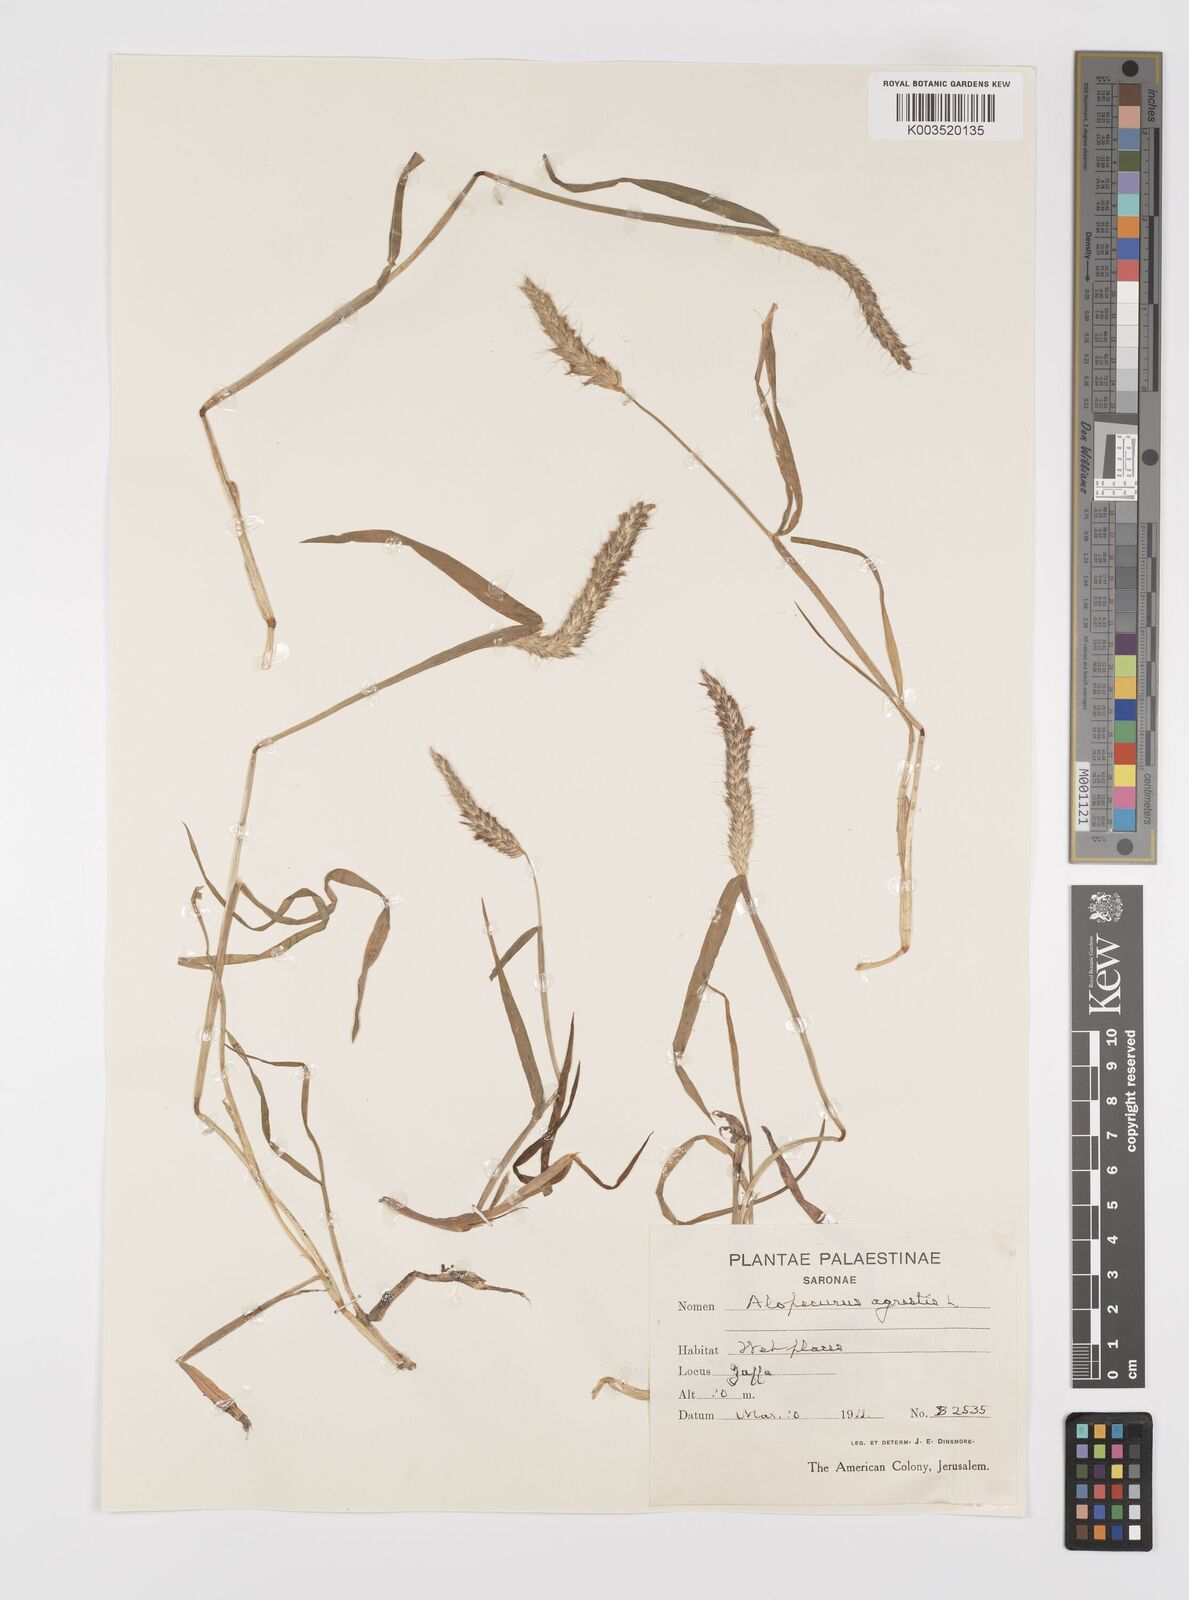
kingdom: Plantae
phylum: Tracheophyta
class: Liliopsida
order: Poales
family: Poaceae
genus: Alopecurus
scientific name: Alopecurus myosuroides
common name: Black-grass
